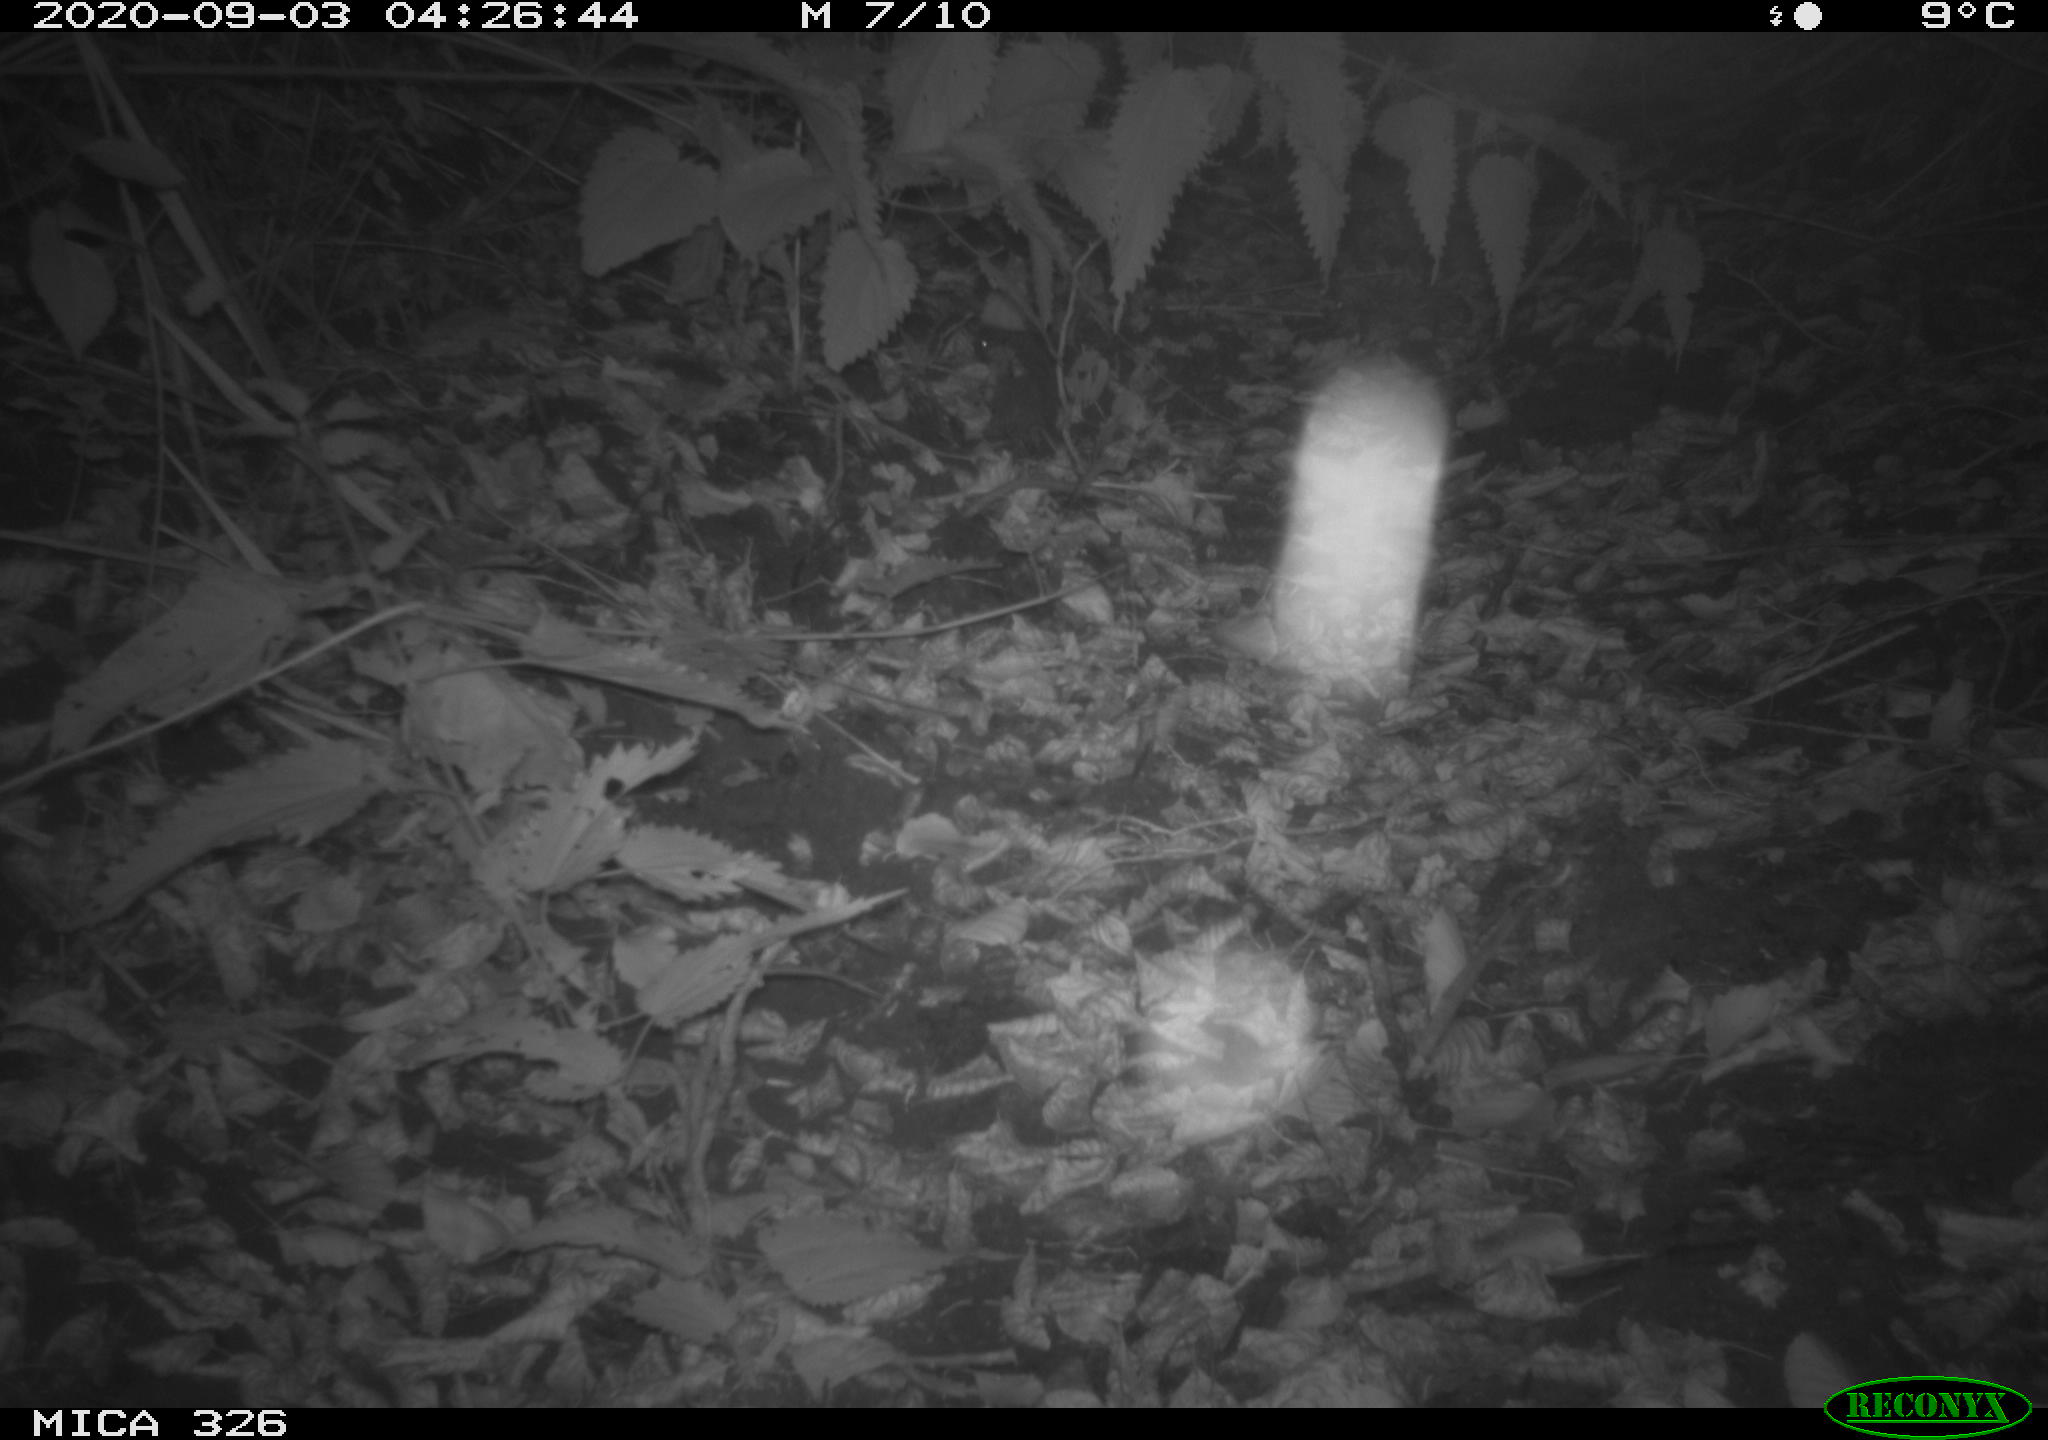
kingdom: Animalia
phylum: Chordata
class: Mammalia
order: Rodentia
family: Myocastoridae
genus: Myocastor
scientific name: Myocastor coypus
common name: Coypu
